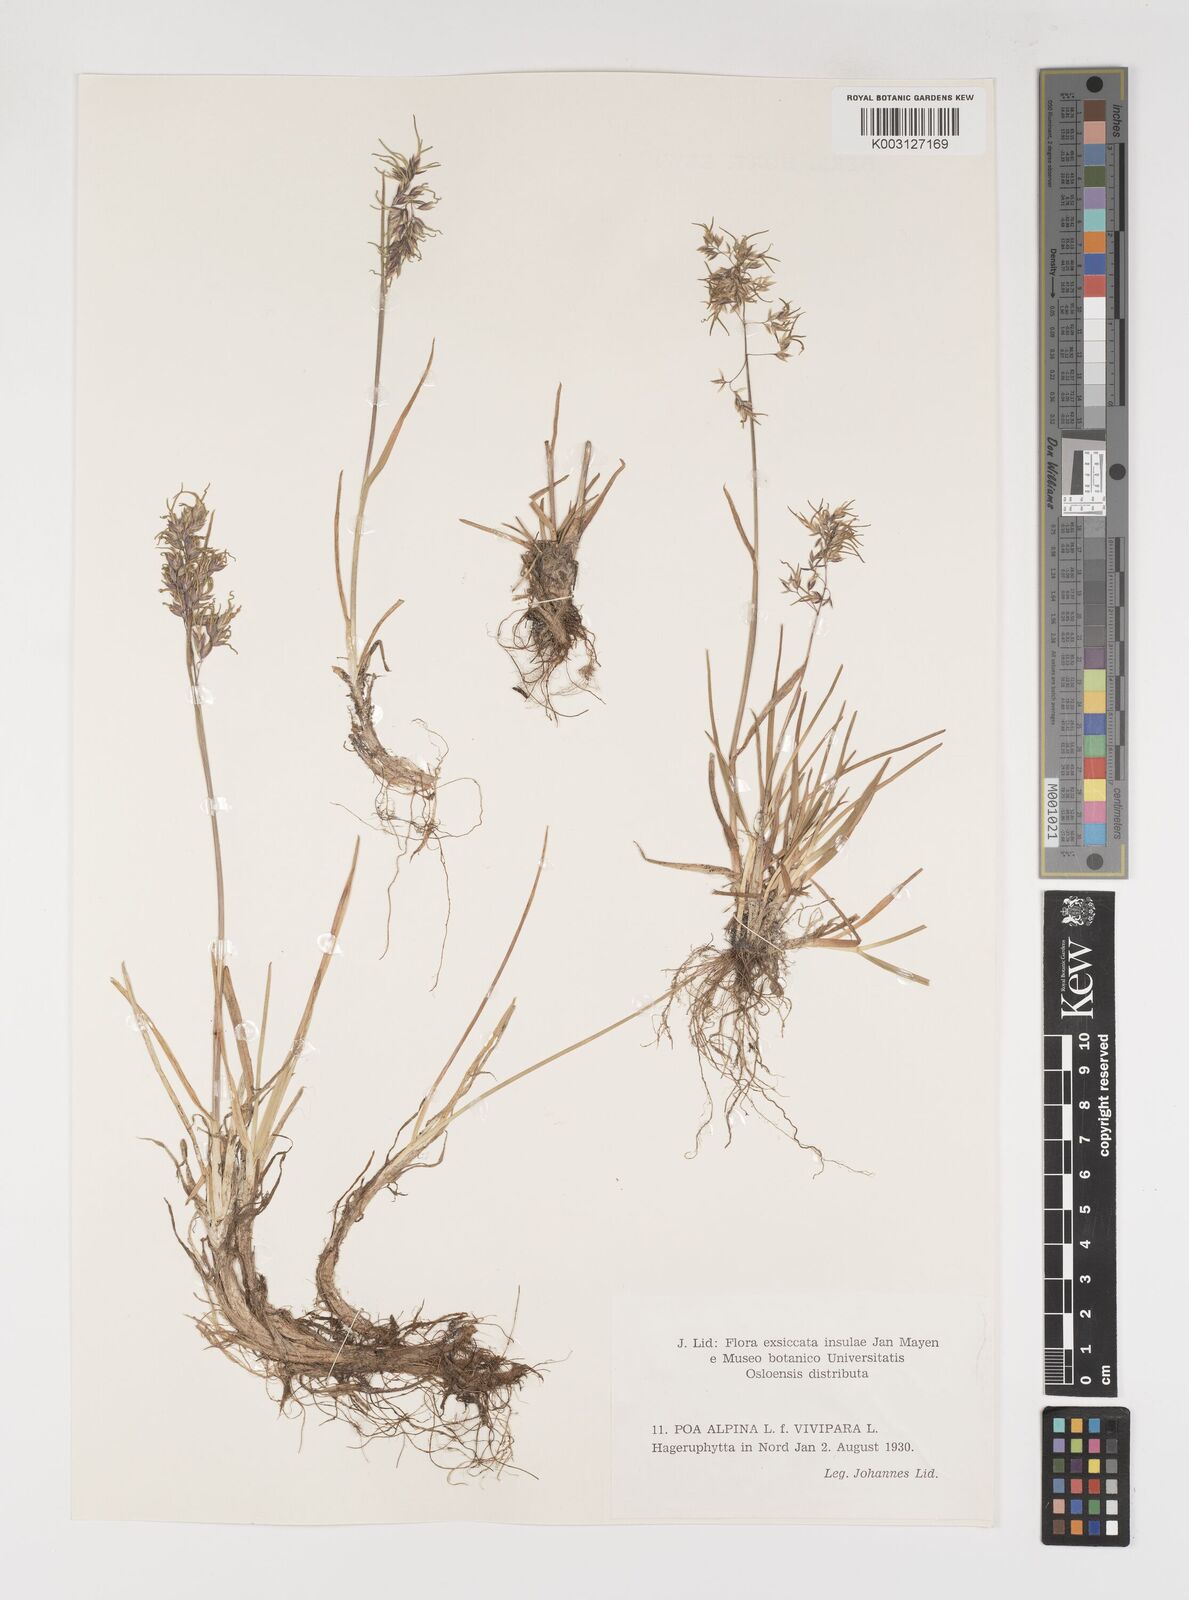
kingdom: Plantae
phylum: Tracheophyta
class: Liliopsida
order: Poales
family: Poaceae
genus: Poa
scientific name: Poa alpina
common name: Alpine bluegrass
